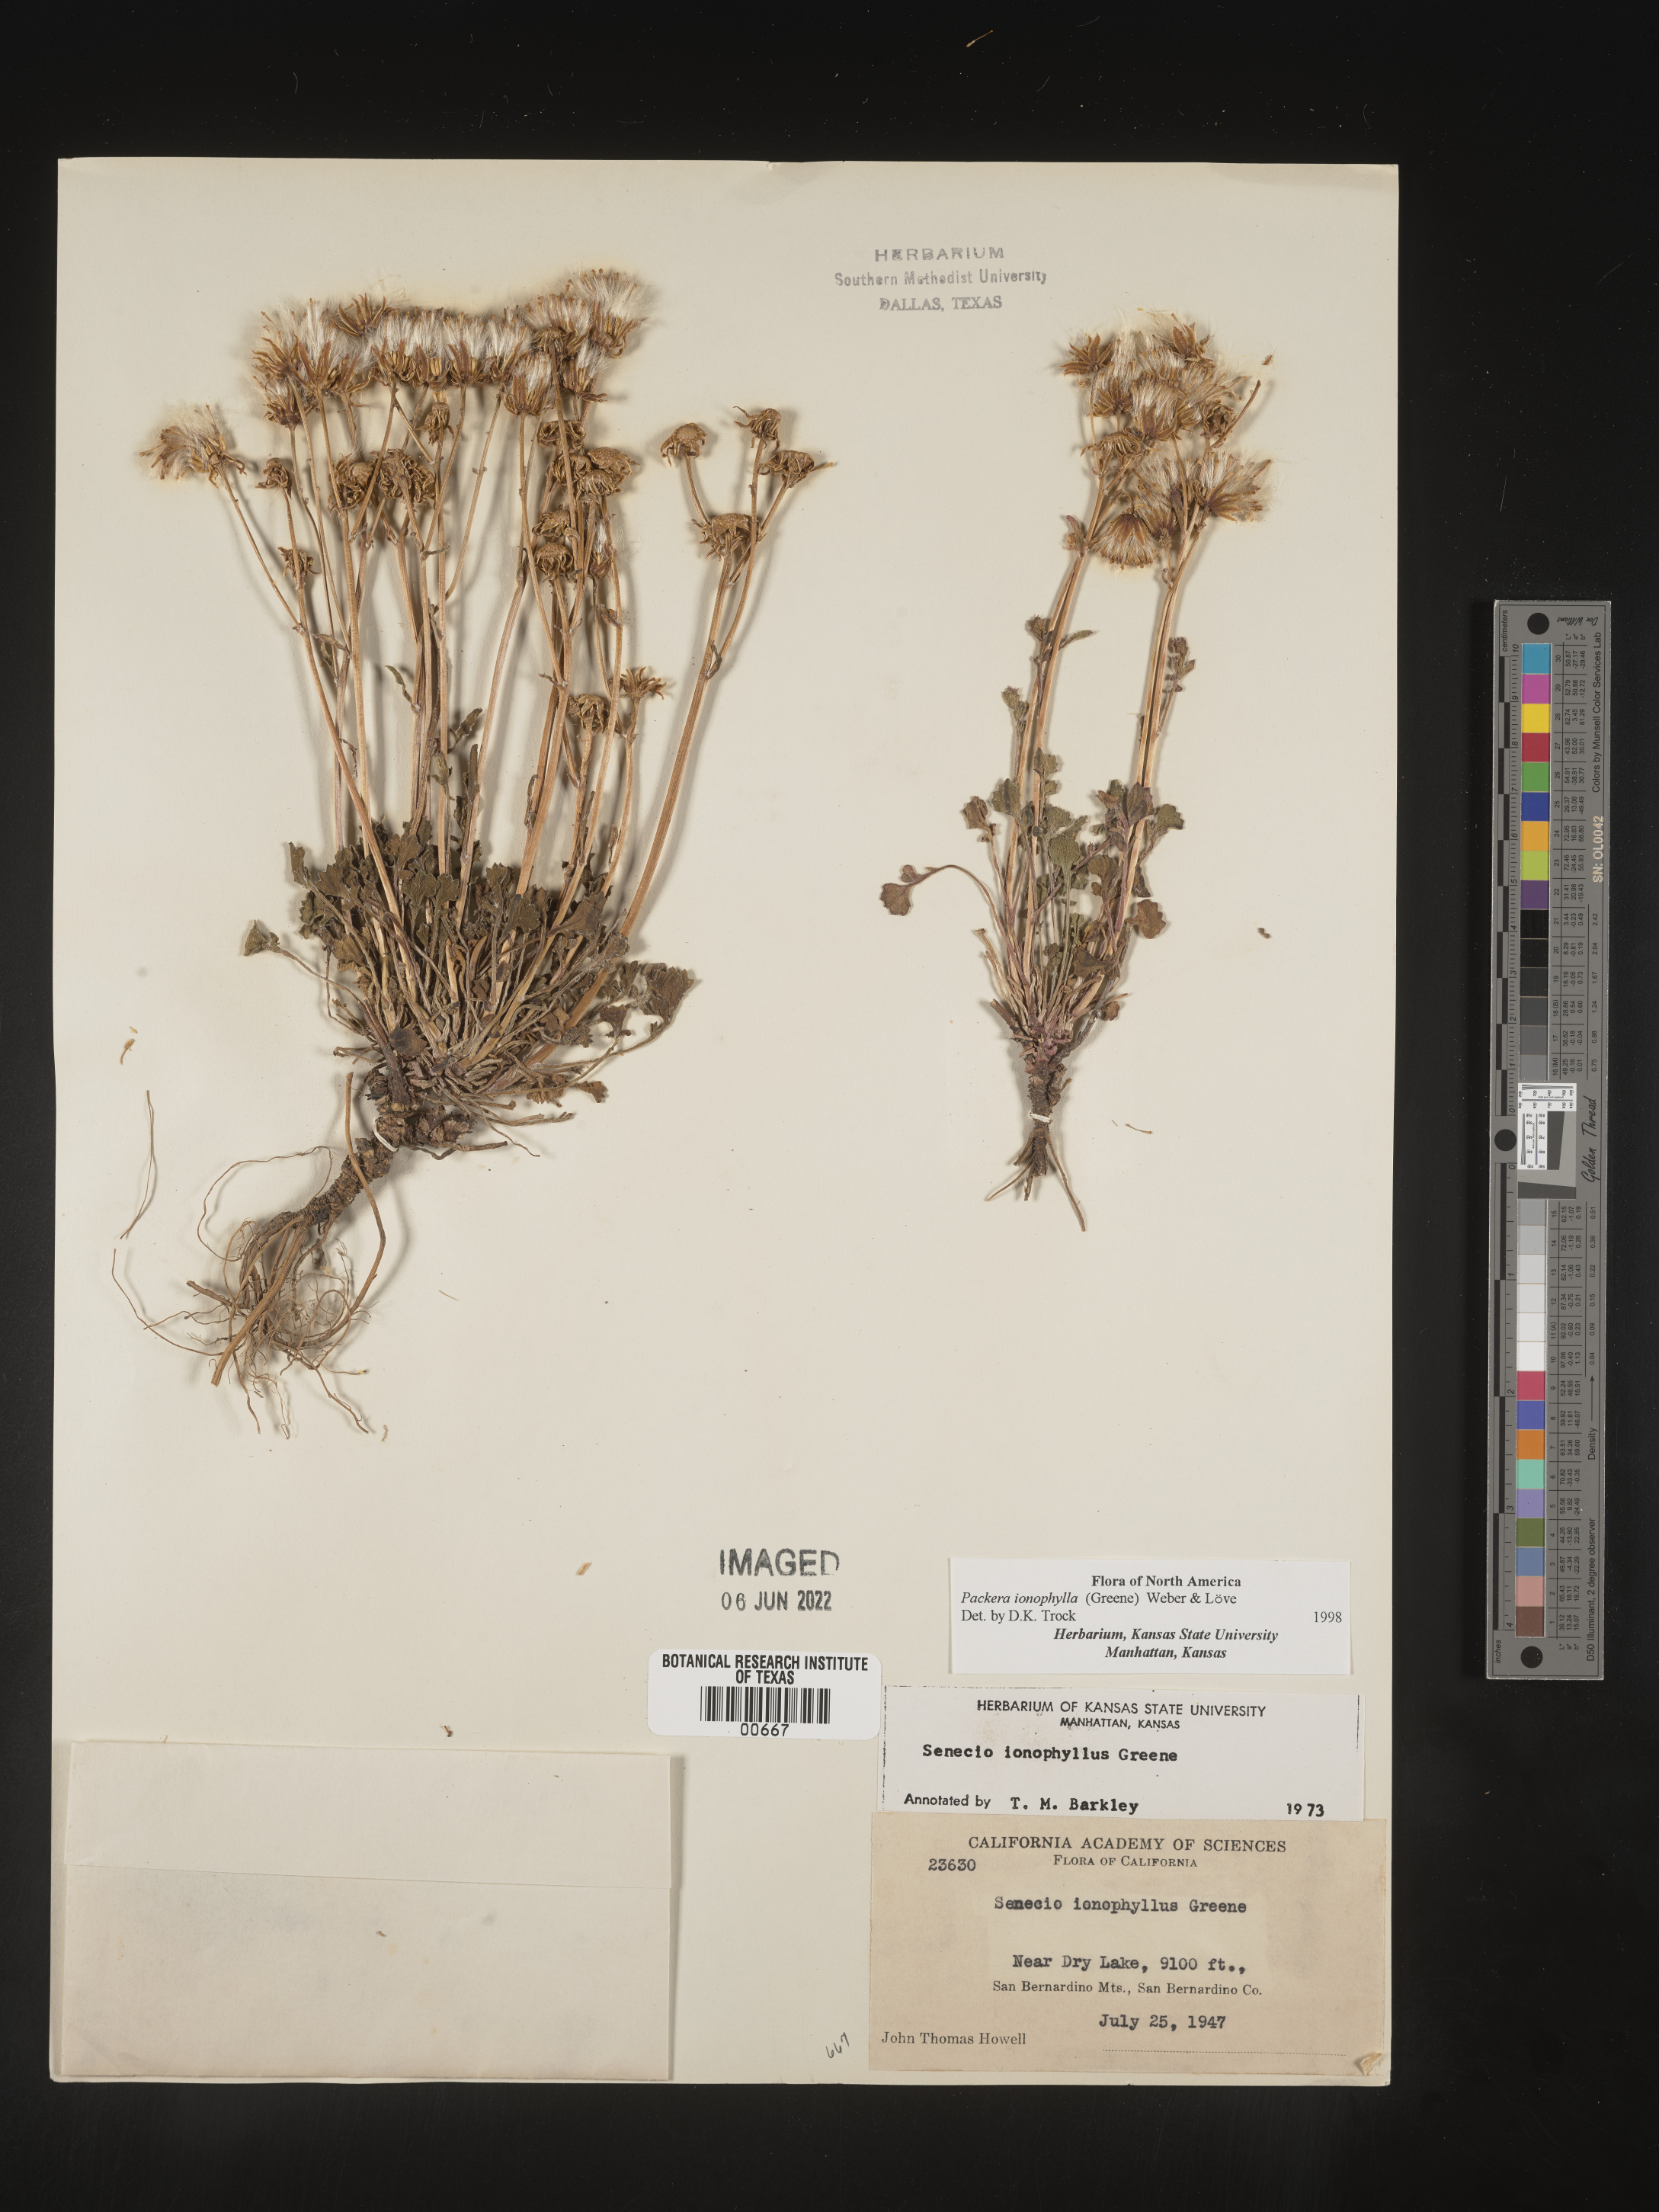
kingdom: Plantae
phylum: Tracheophyta
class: Magnoliopsida
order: Asterales
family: Asteraceae
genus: Packera
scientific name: Packera
